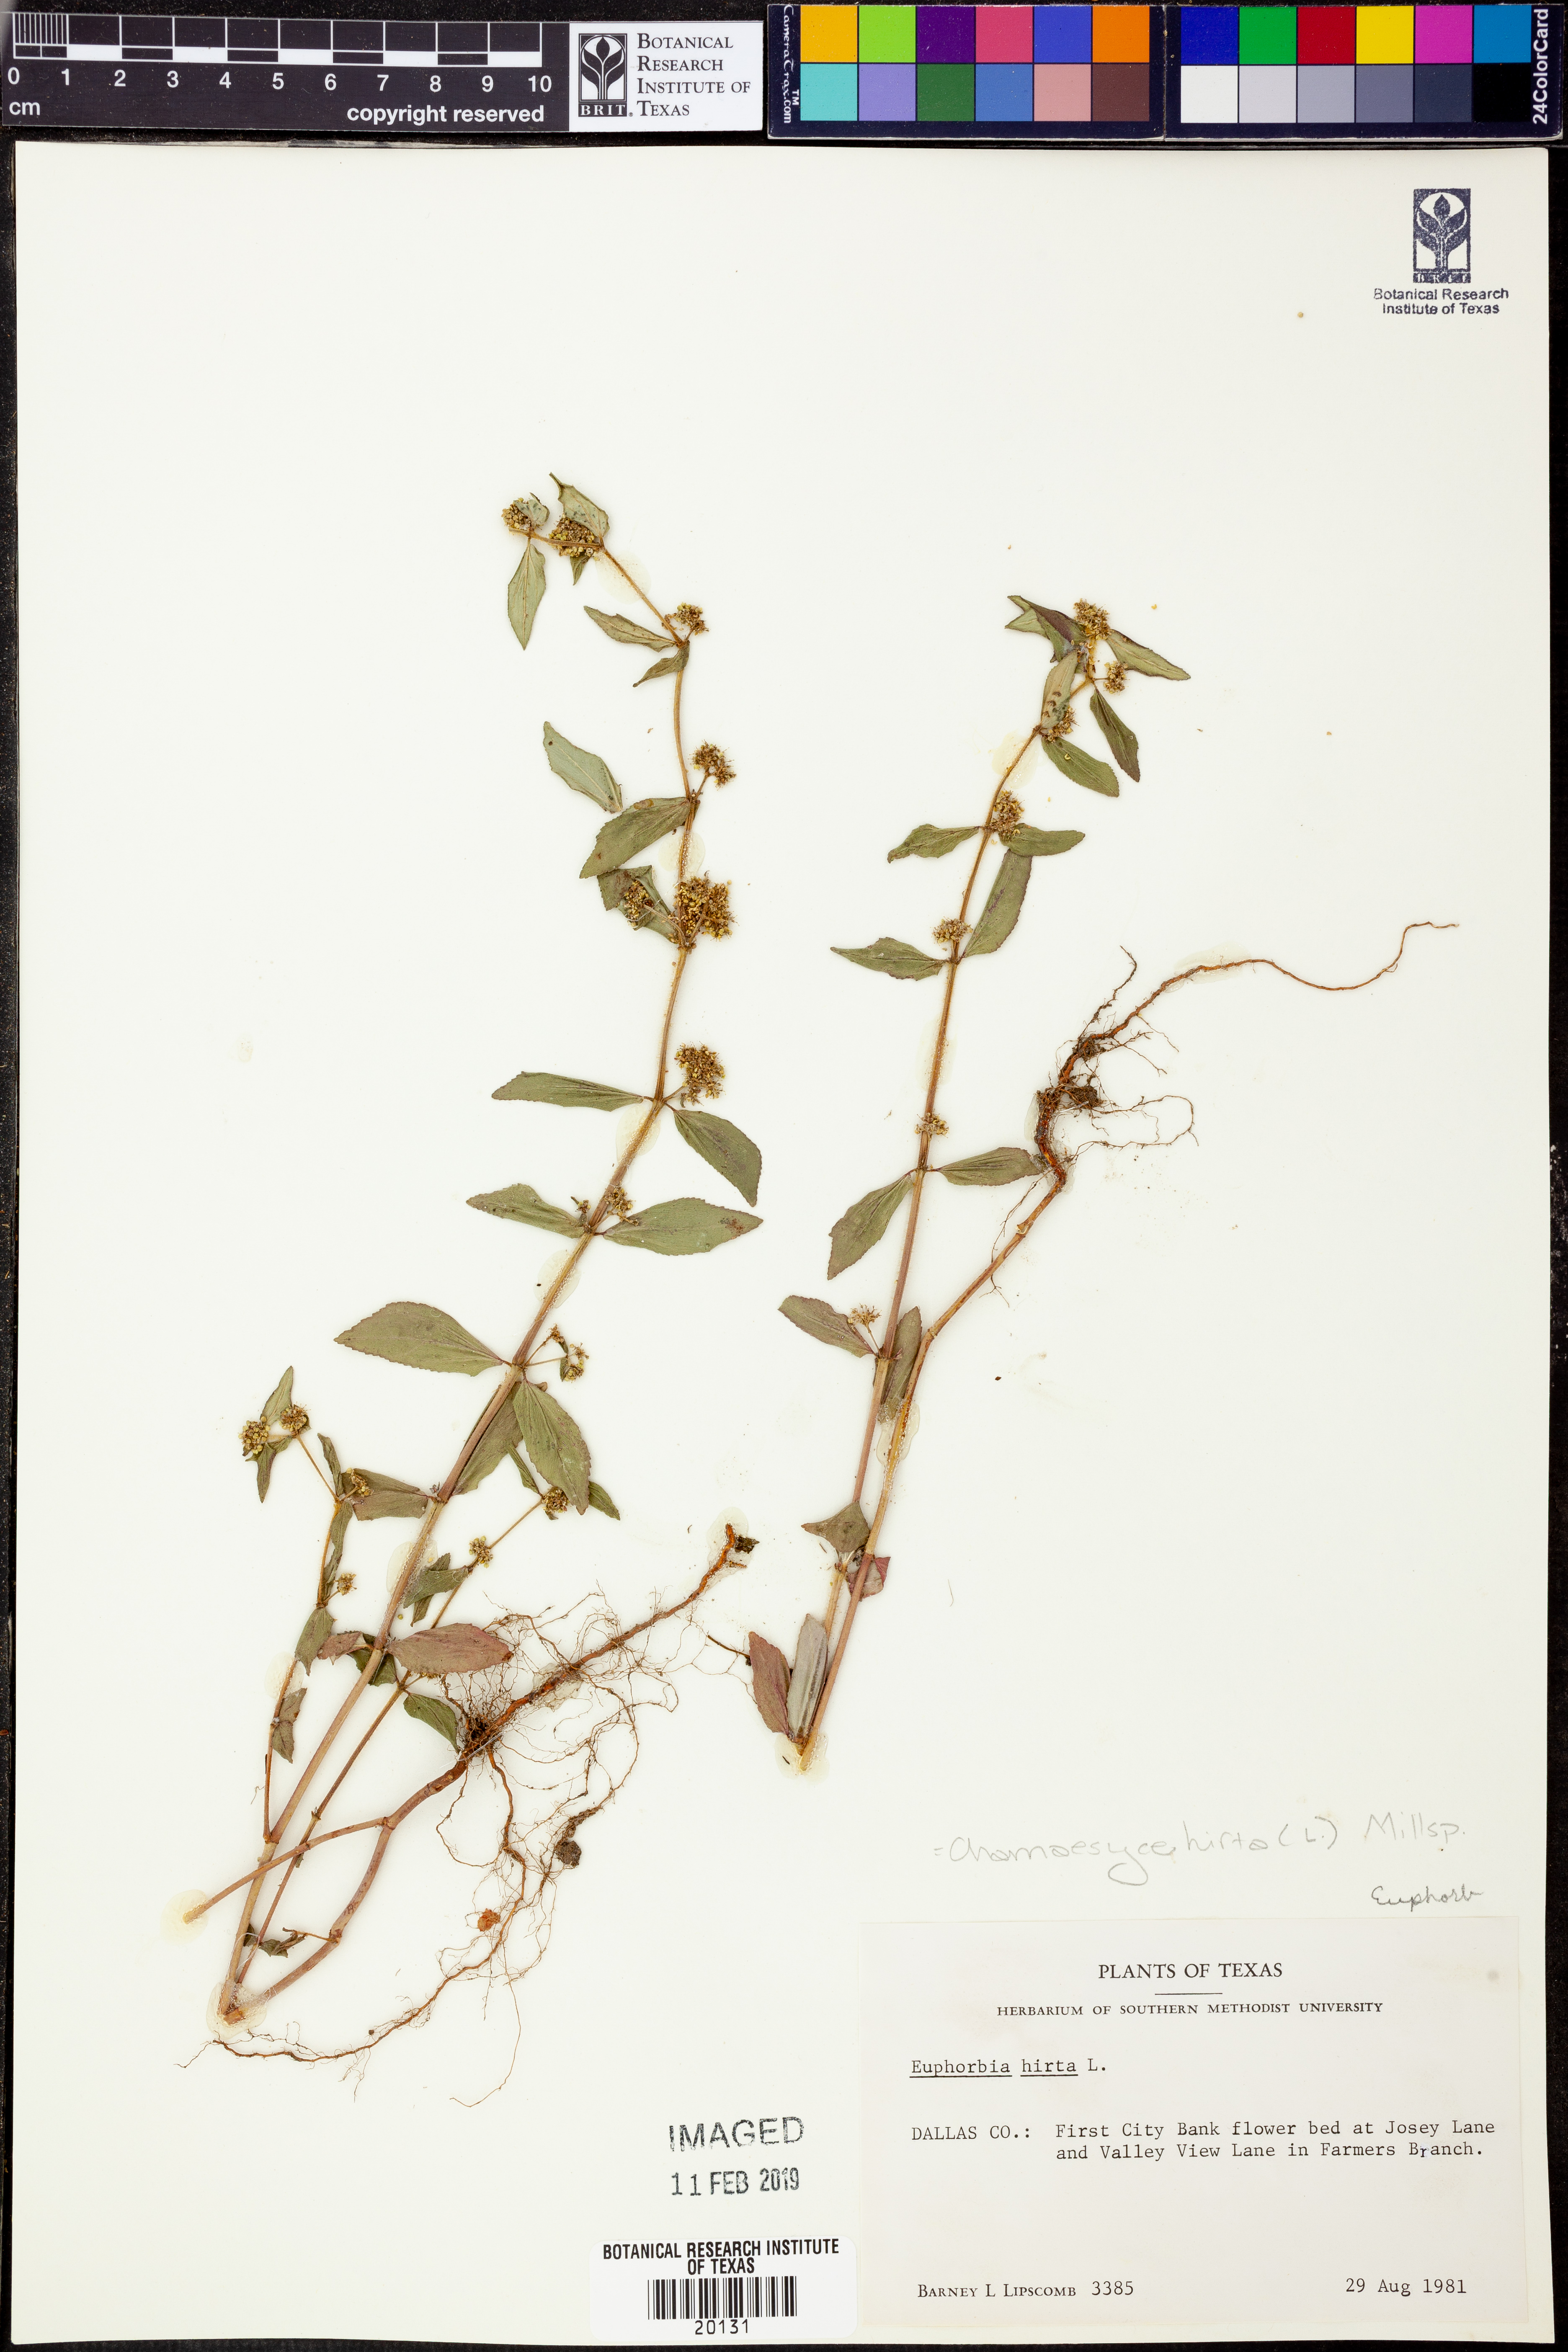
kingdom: Plantae
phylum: Tracheophyta
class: Magnoliopsida
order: Malpighiales
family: Euphorbiaceae
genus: Euphorbia
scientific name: Euphorbia hirta
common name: Pillpod sandmat
